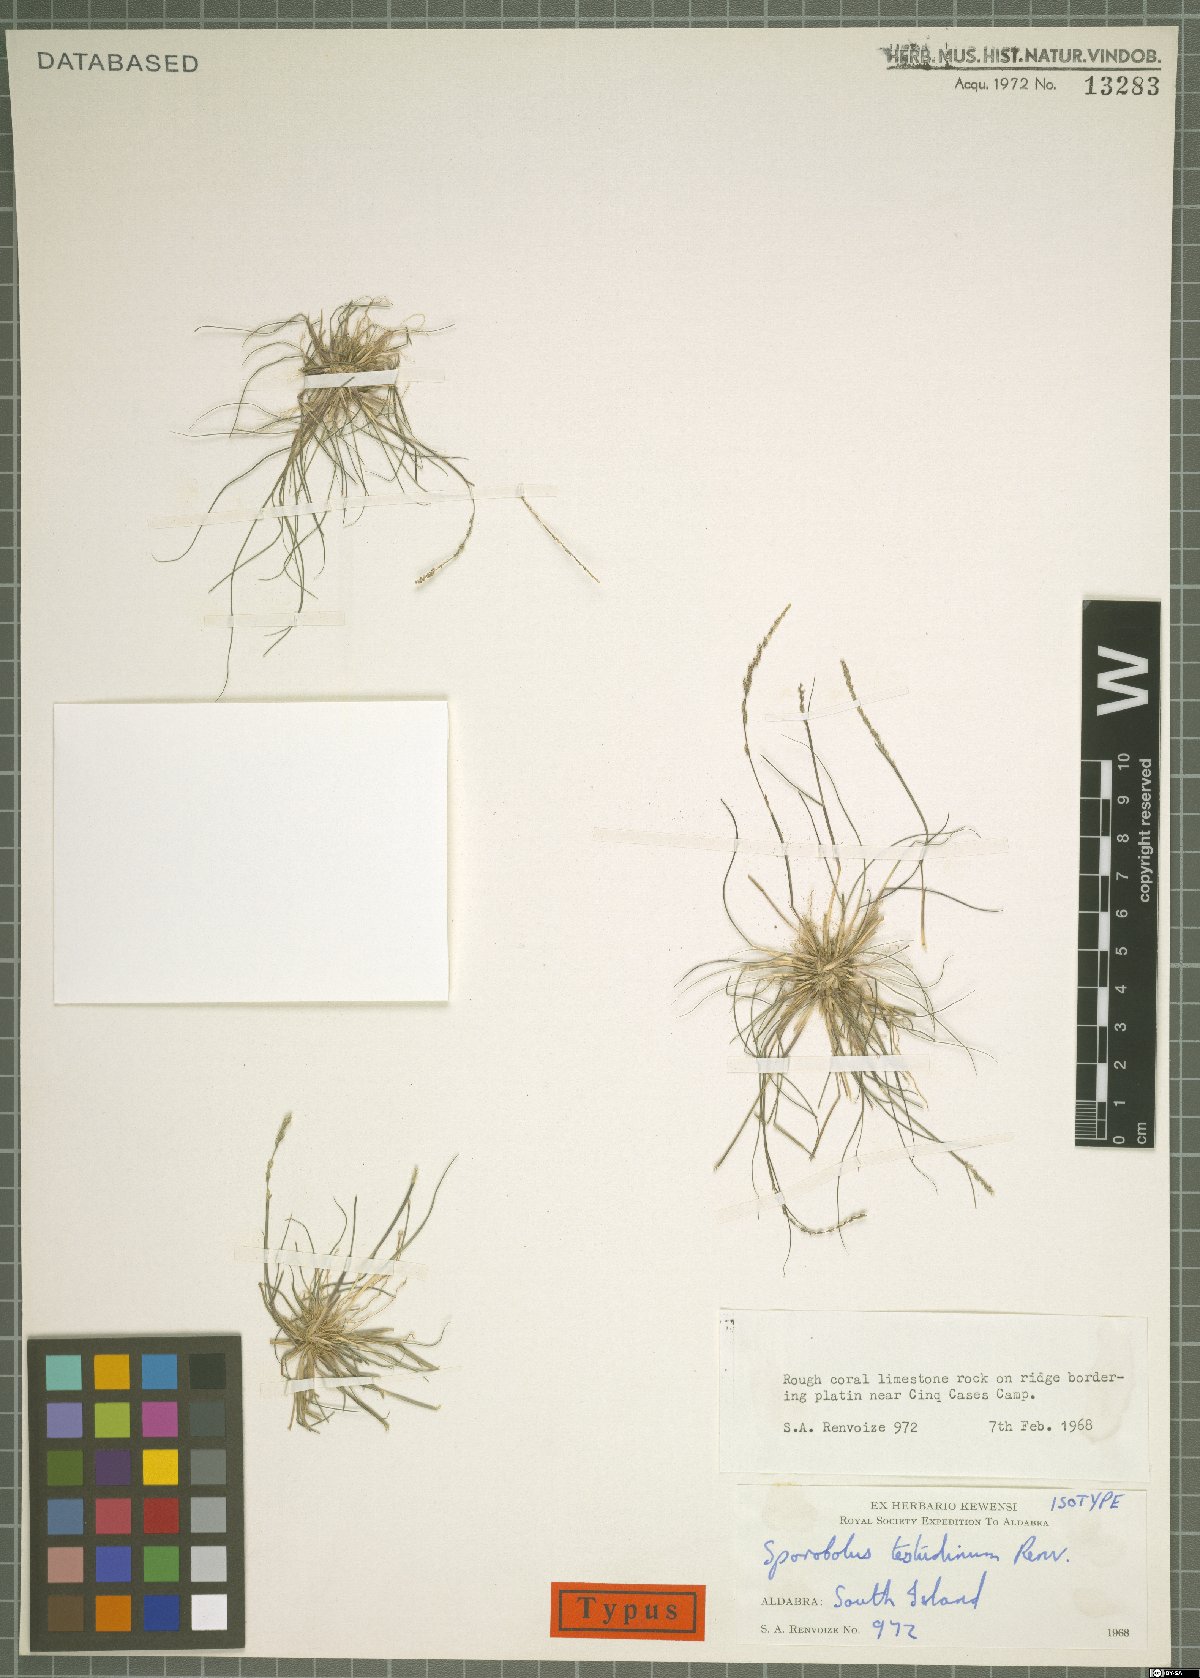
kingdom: Plantae
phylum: Tracheophyta
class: Liliopsida
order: Poales
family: Poaceae
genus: Sporobolus
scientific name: Sporobolus testudinum
